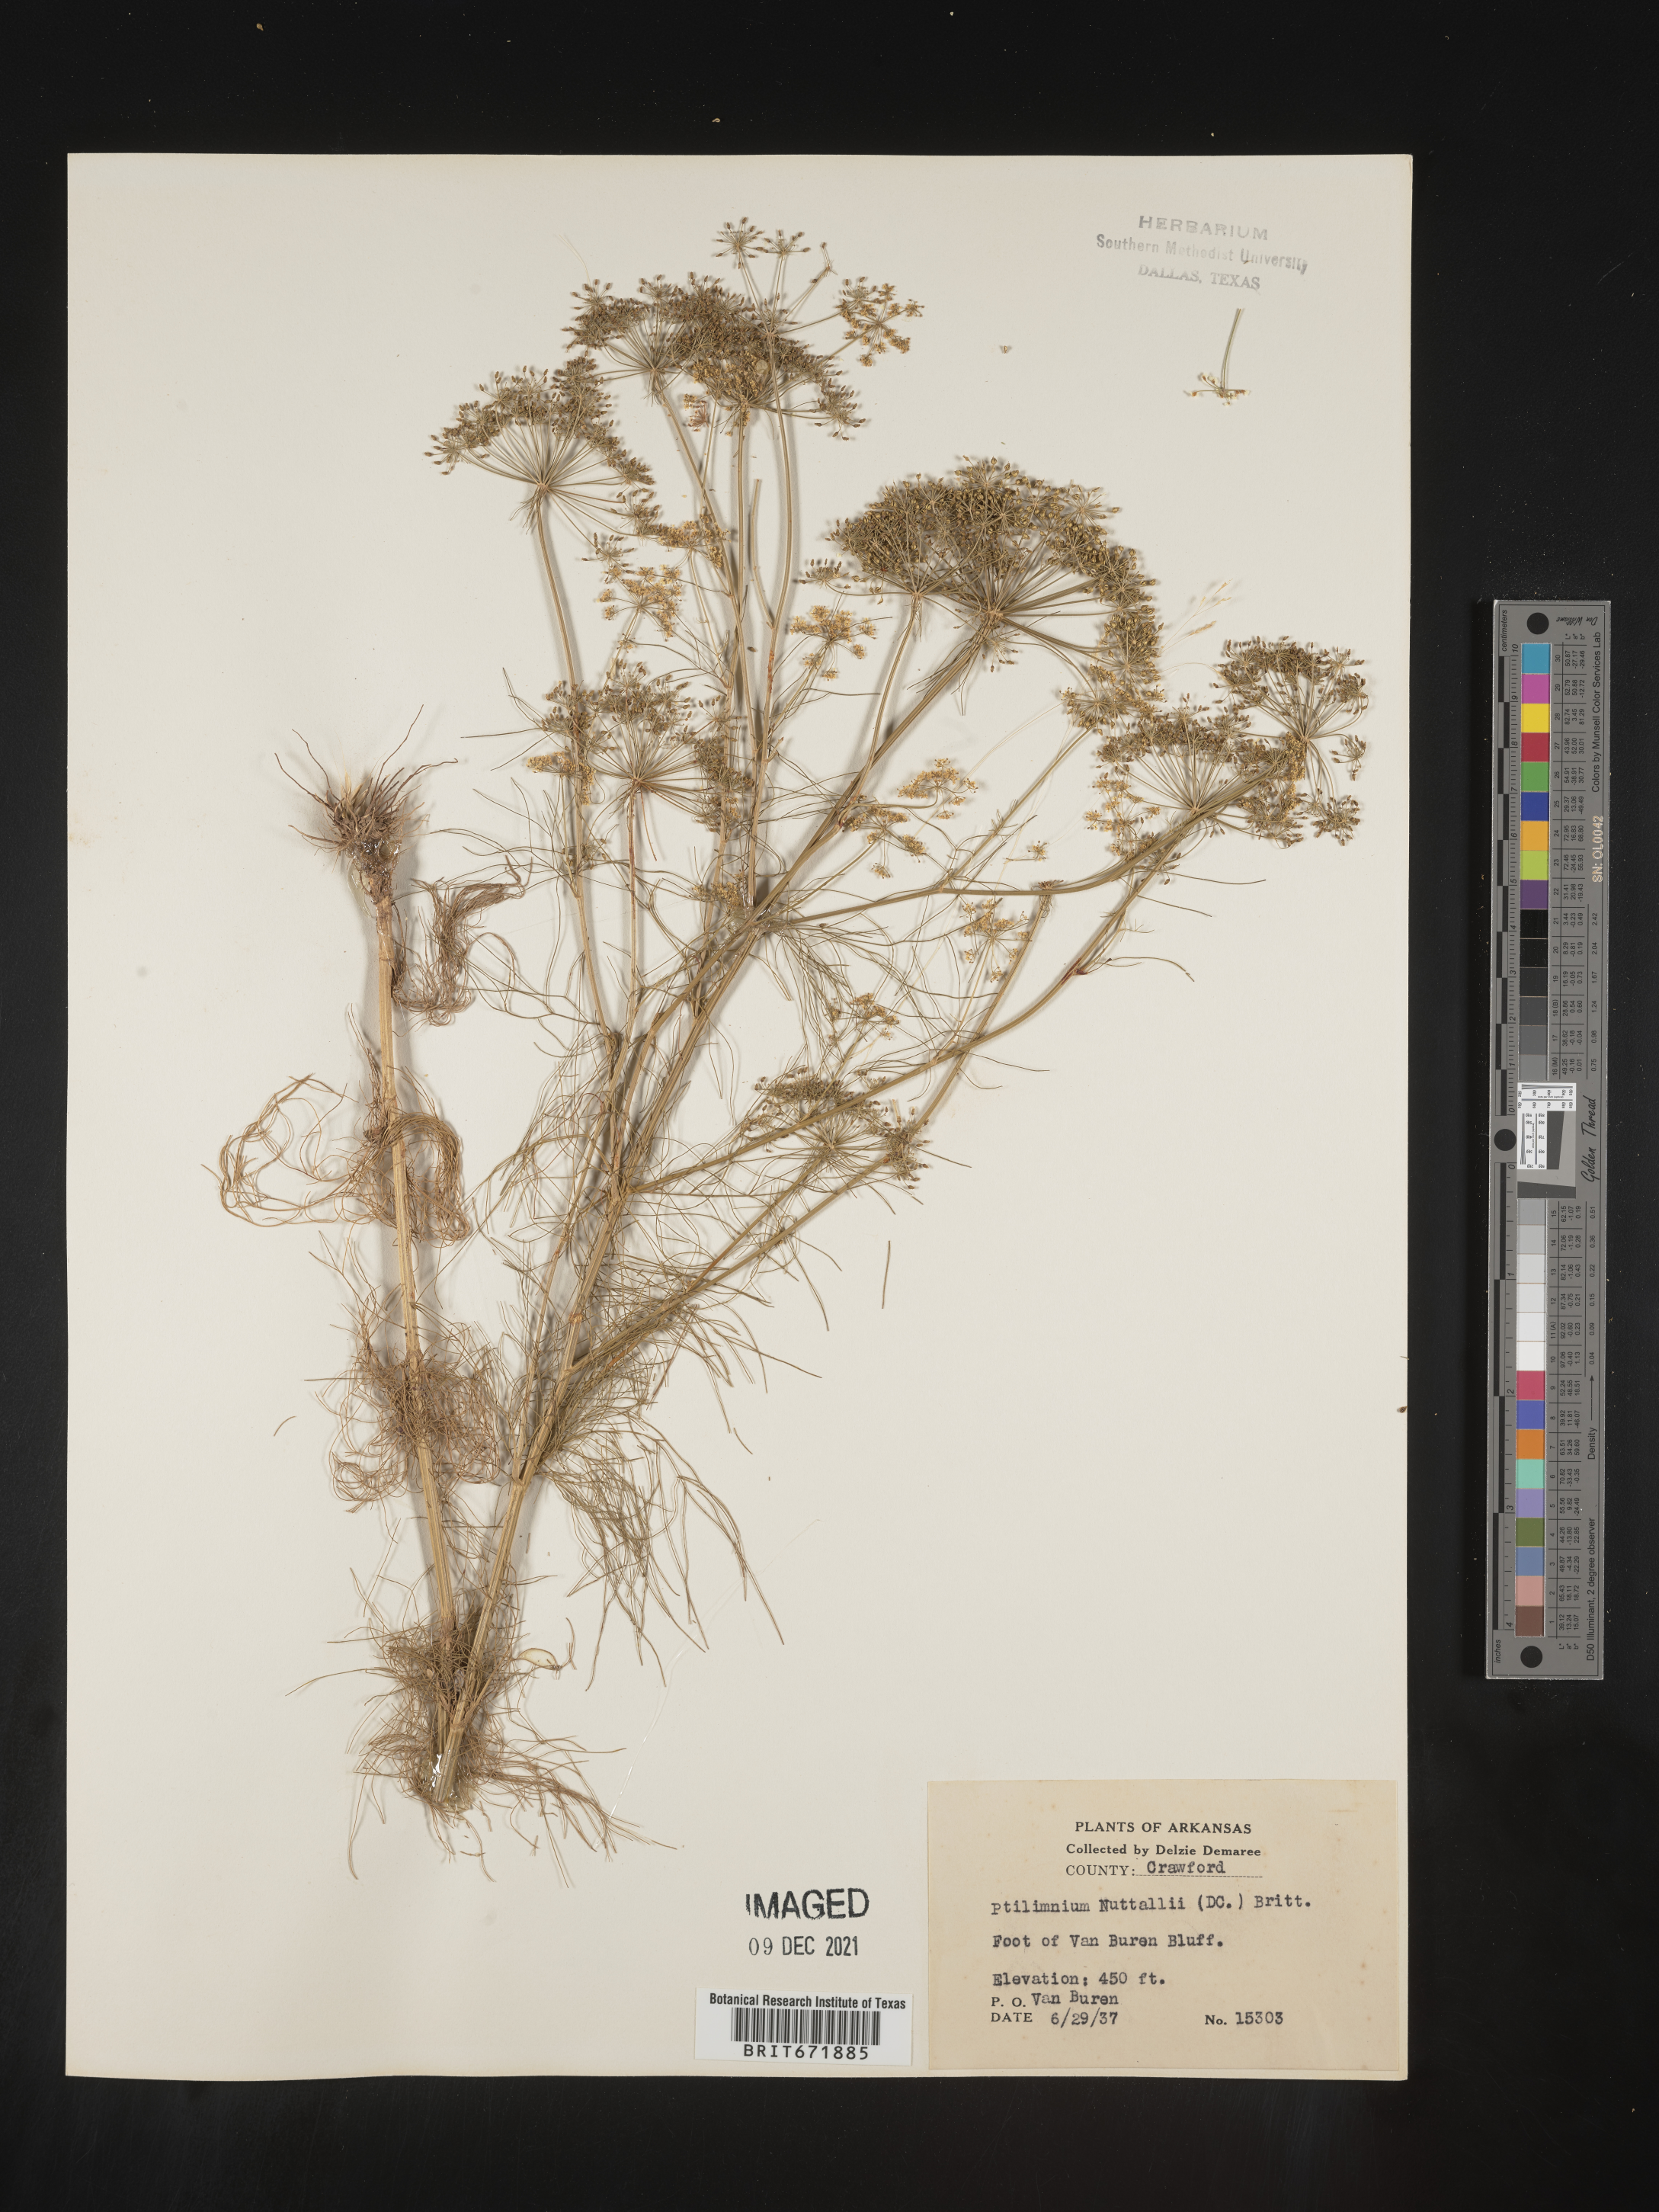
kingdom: Plantae
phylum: Tracheophyta
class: Magnoliopsida
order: Apiales
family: Apiaceae
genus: Ptilimnium
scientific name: Ptilimnium nuttallii
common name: Ozark bishop's-weed
